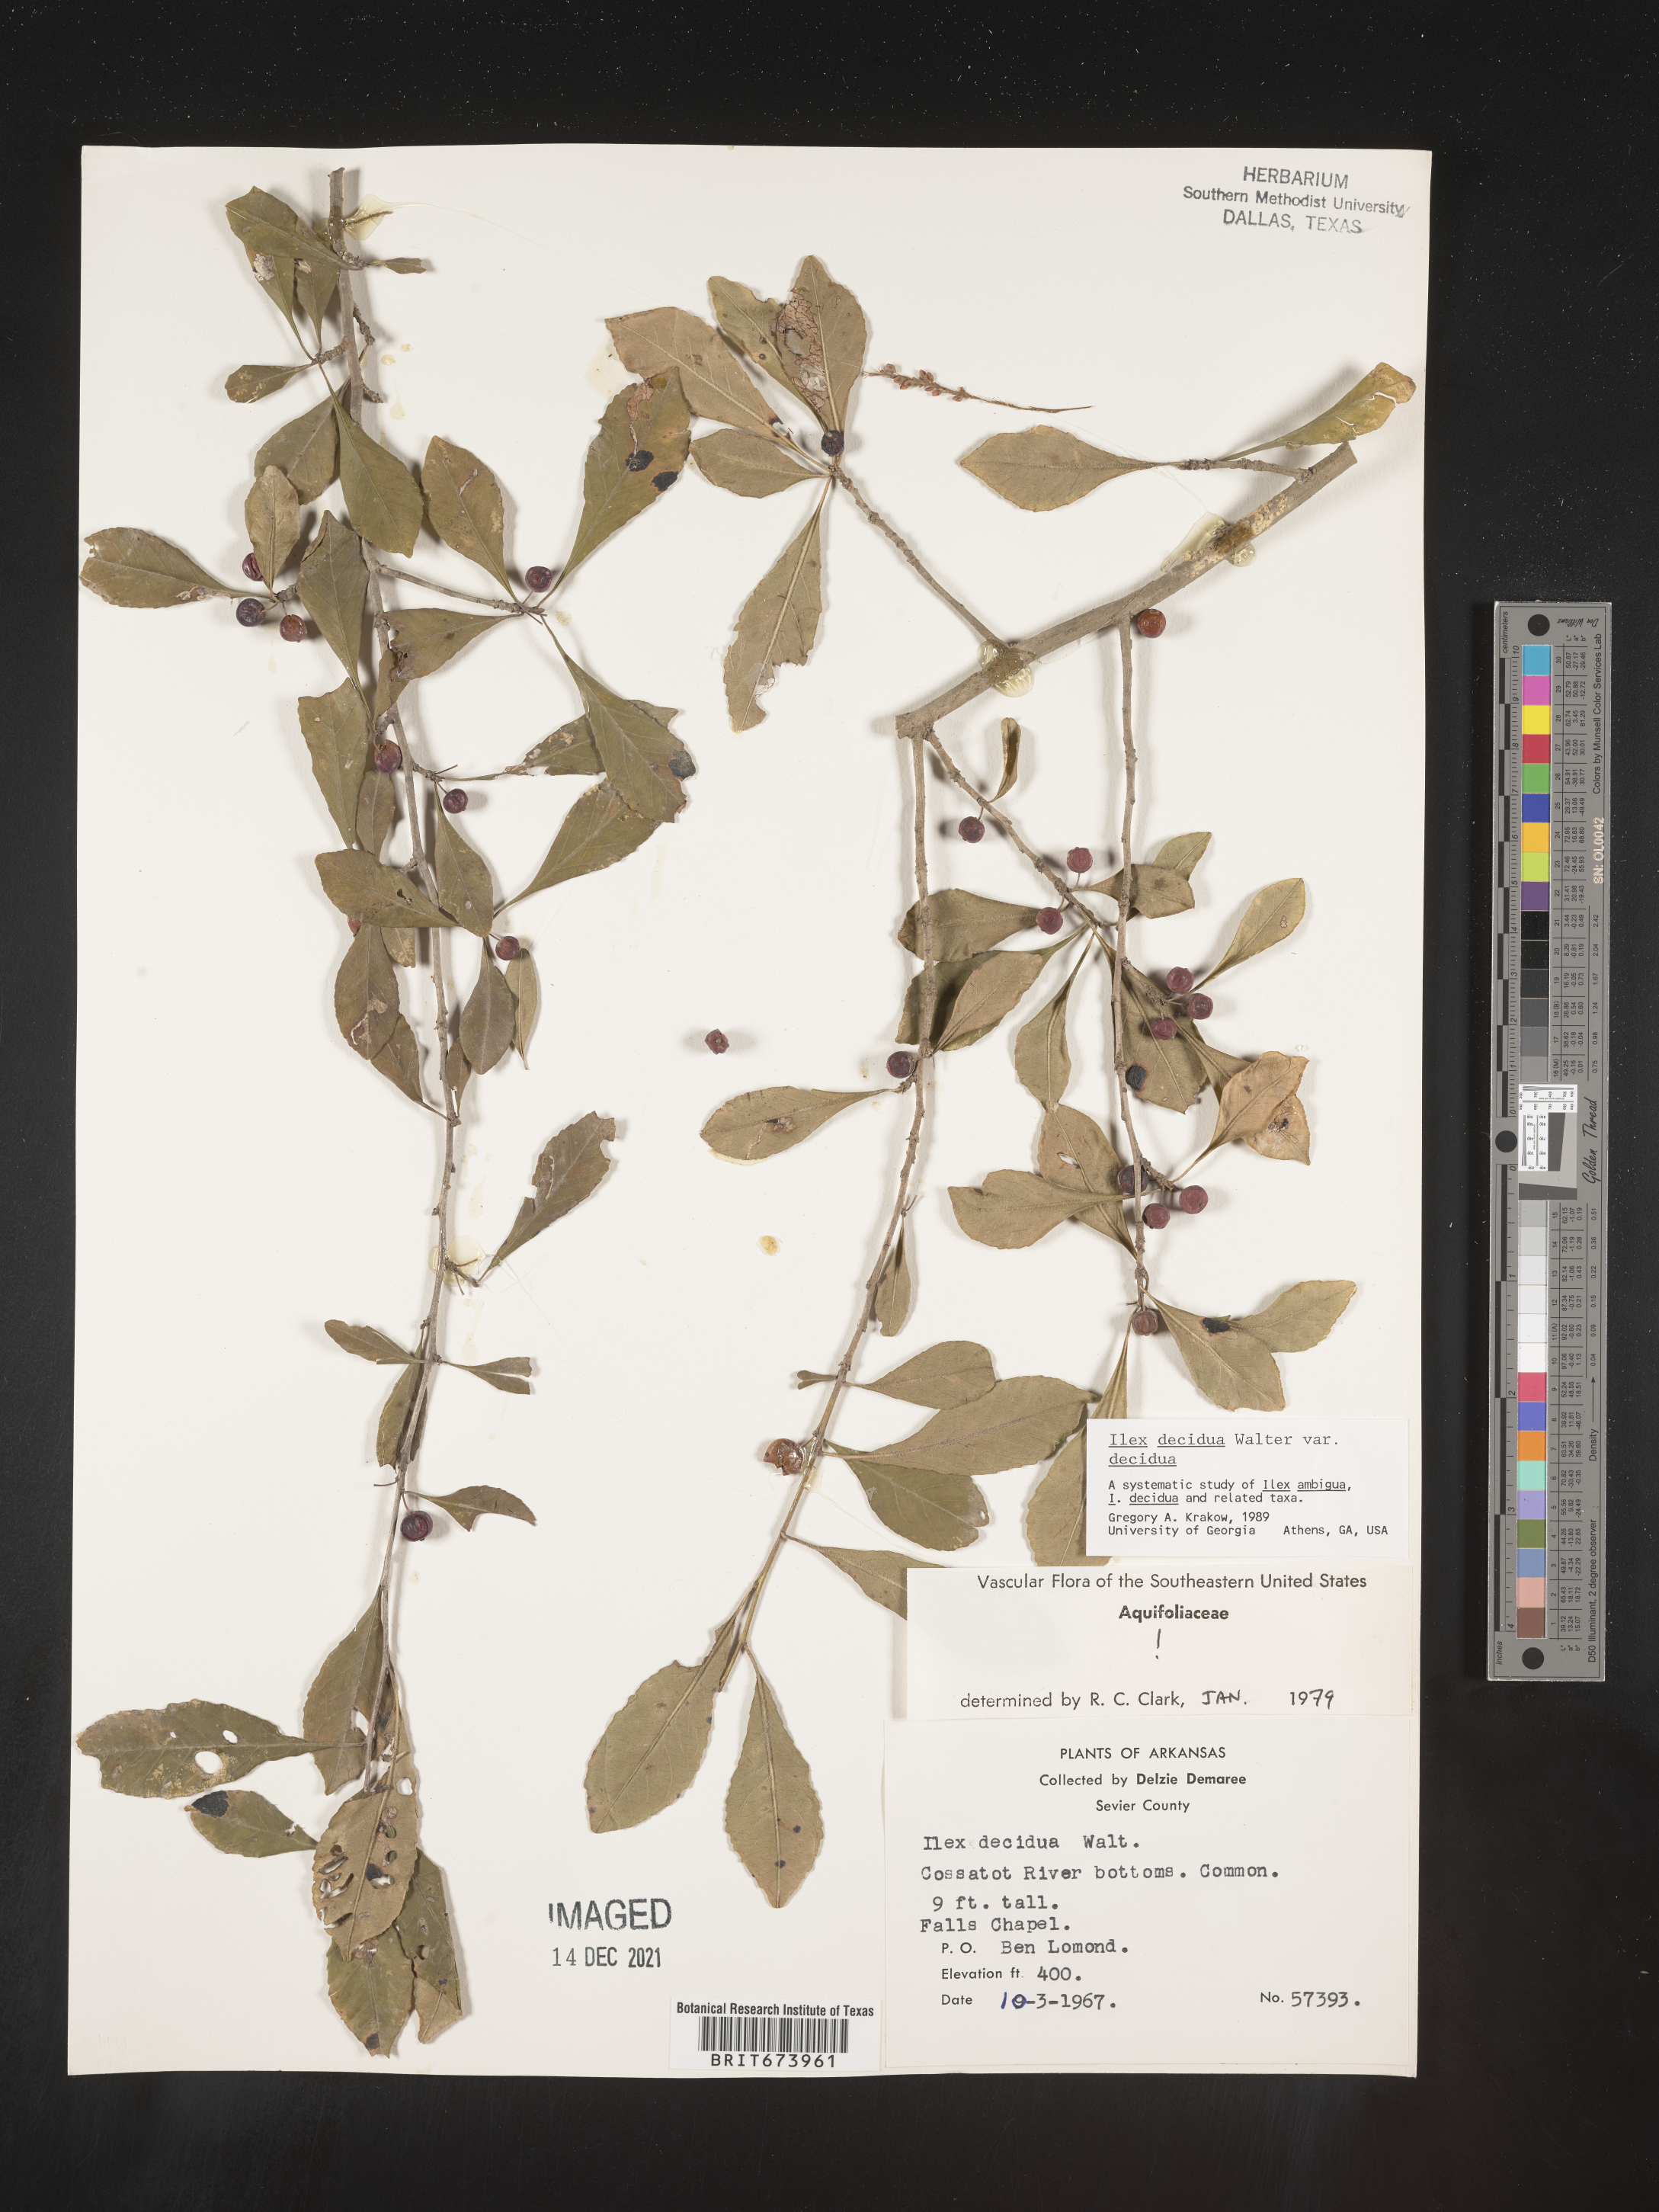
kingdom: Plantae
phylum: Tracheophyta
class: Magnoliopsida
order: Aquifoliales
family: Aquifoliaceae
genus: Ilex
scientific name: Ilex decidua
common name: Possum-haw
